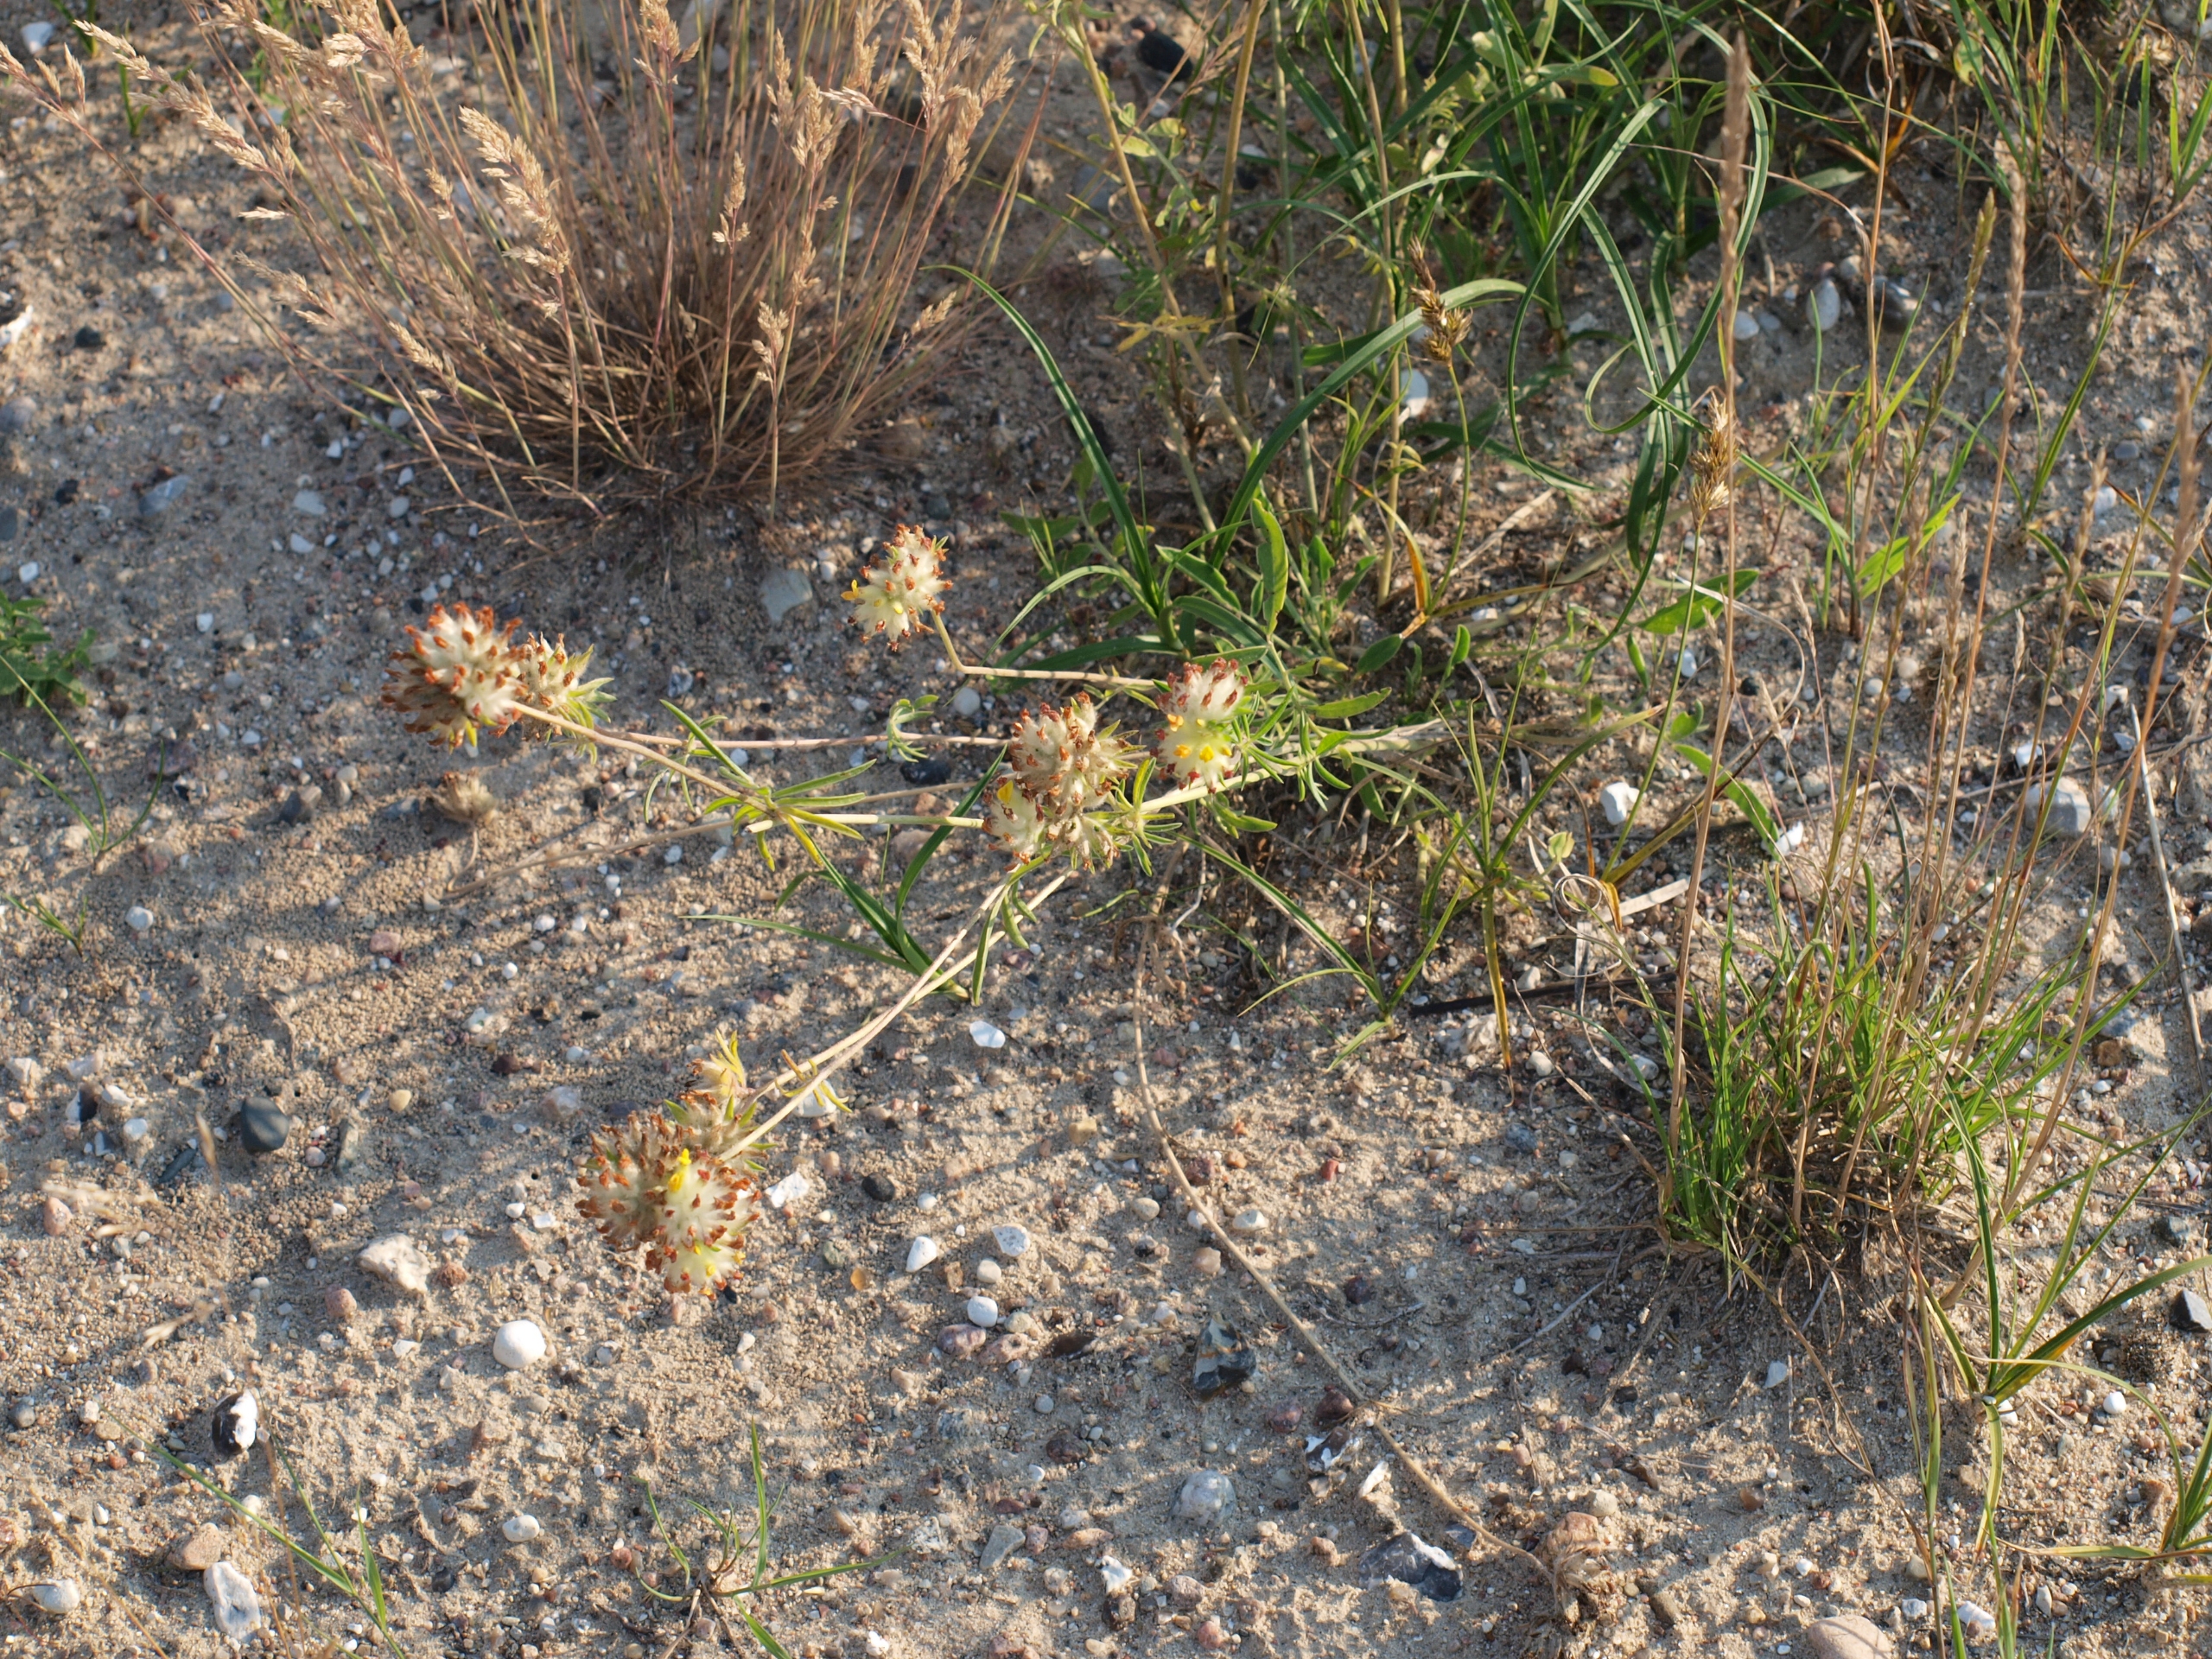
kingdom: Plantae
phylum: Tracheophyta
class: Magnoliopsida
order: Fabales
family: Fabaceae
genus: Anthyllis
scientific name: Anthyllis vulneraria
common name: Rundbælg
